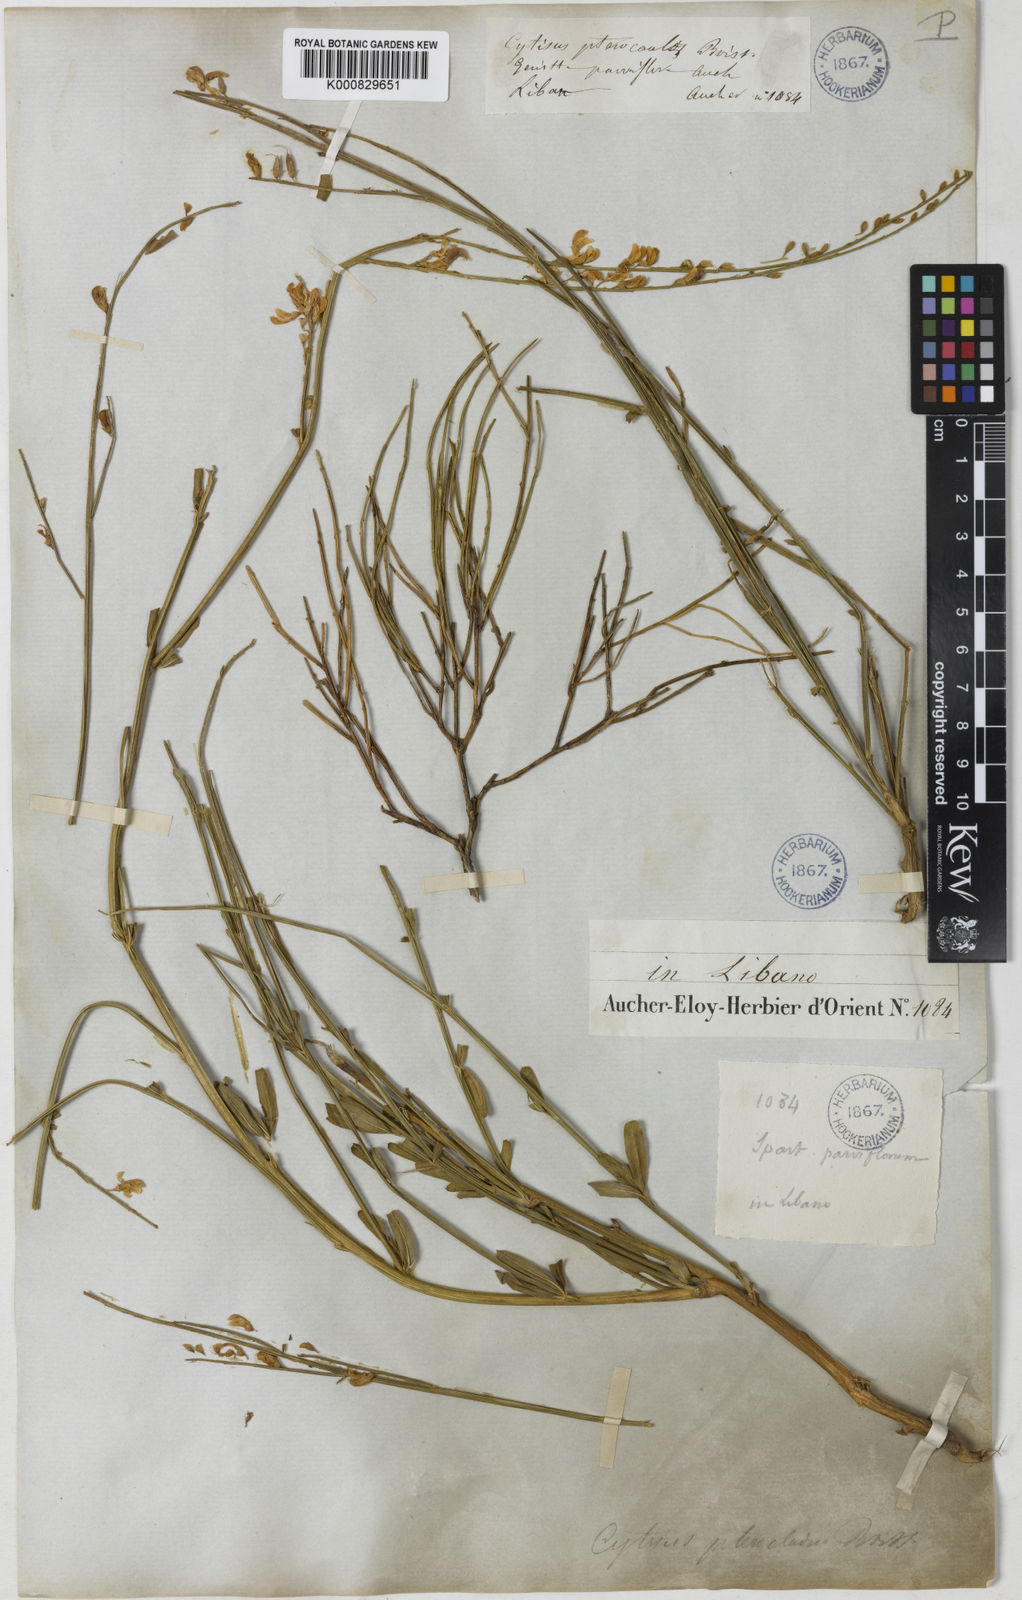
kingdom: Plantae
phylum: Tracheophyta
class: Magnoliopsida
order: Fabales
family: Fabaceae
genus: Genista
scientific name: Genista aucheri
